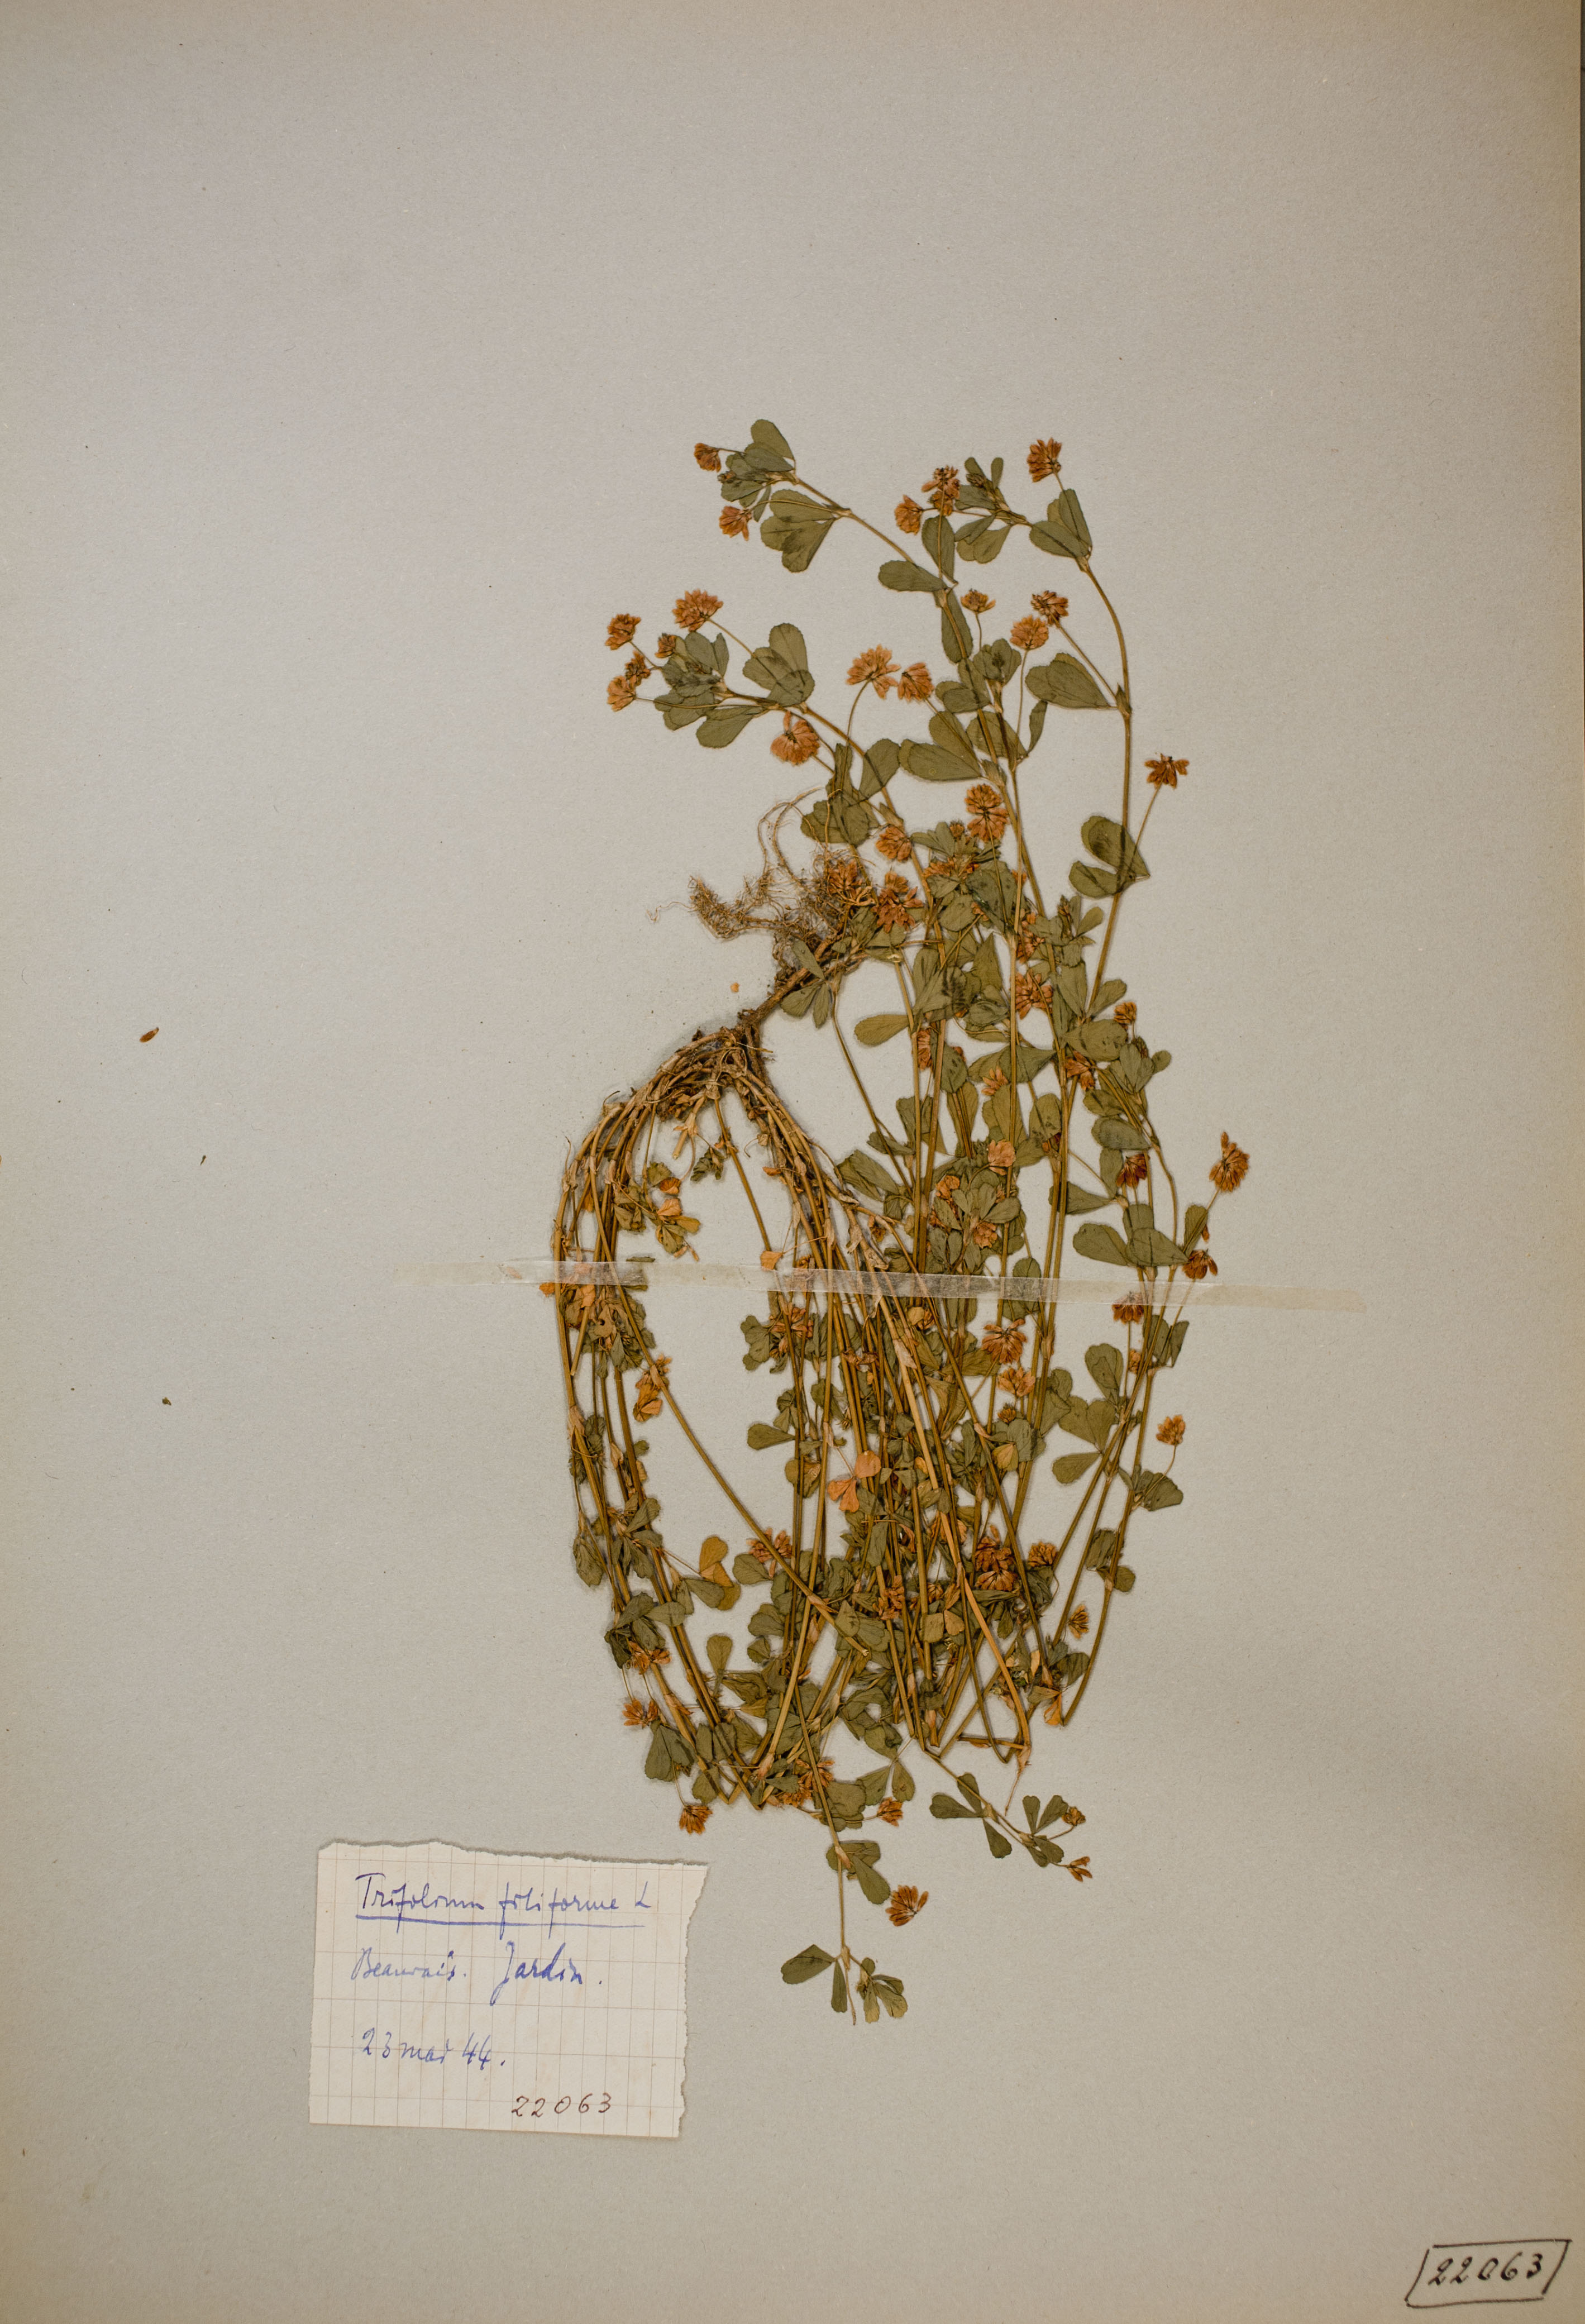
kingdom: Plantae
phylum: Tracheophyta
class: Magnoliopsida
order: Fabales
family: Fabaceae
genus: Trifolium
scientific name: Trifolium micranthum
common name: Slender trefoil
